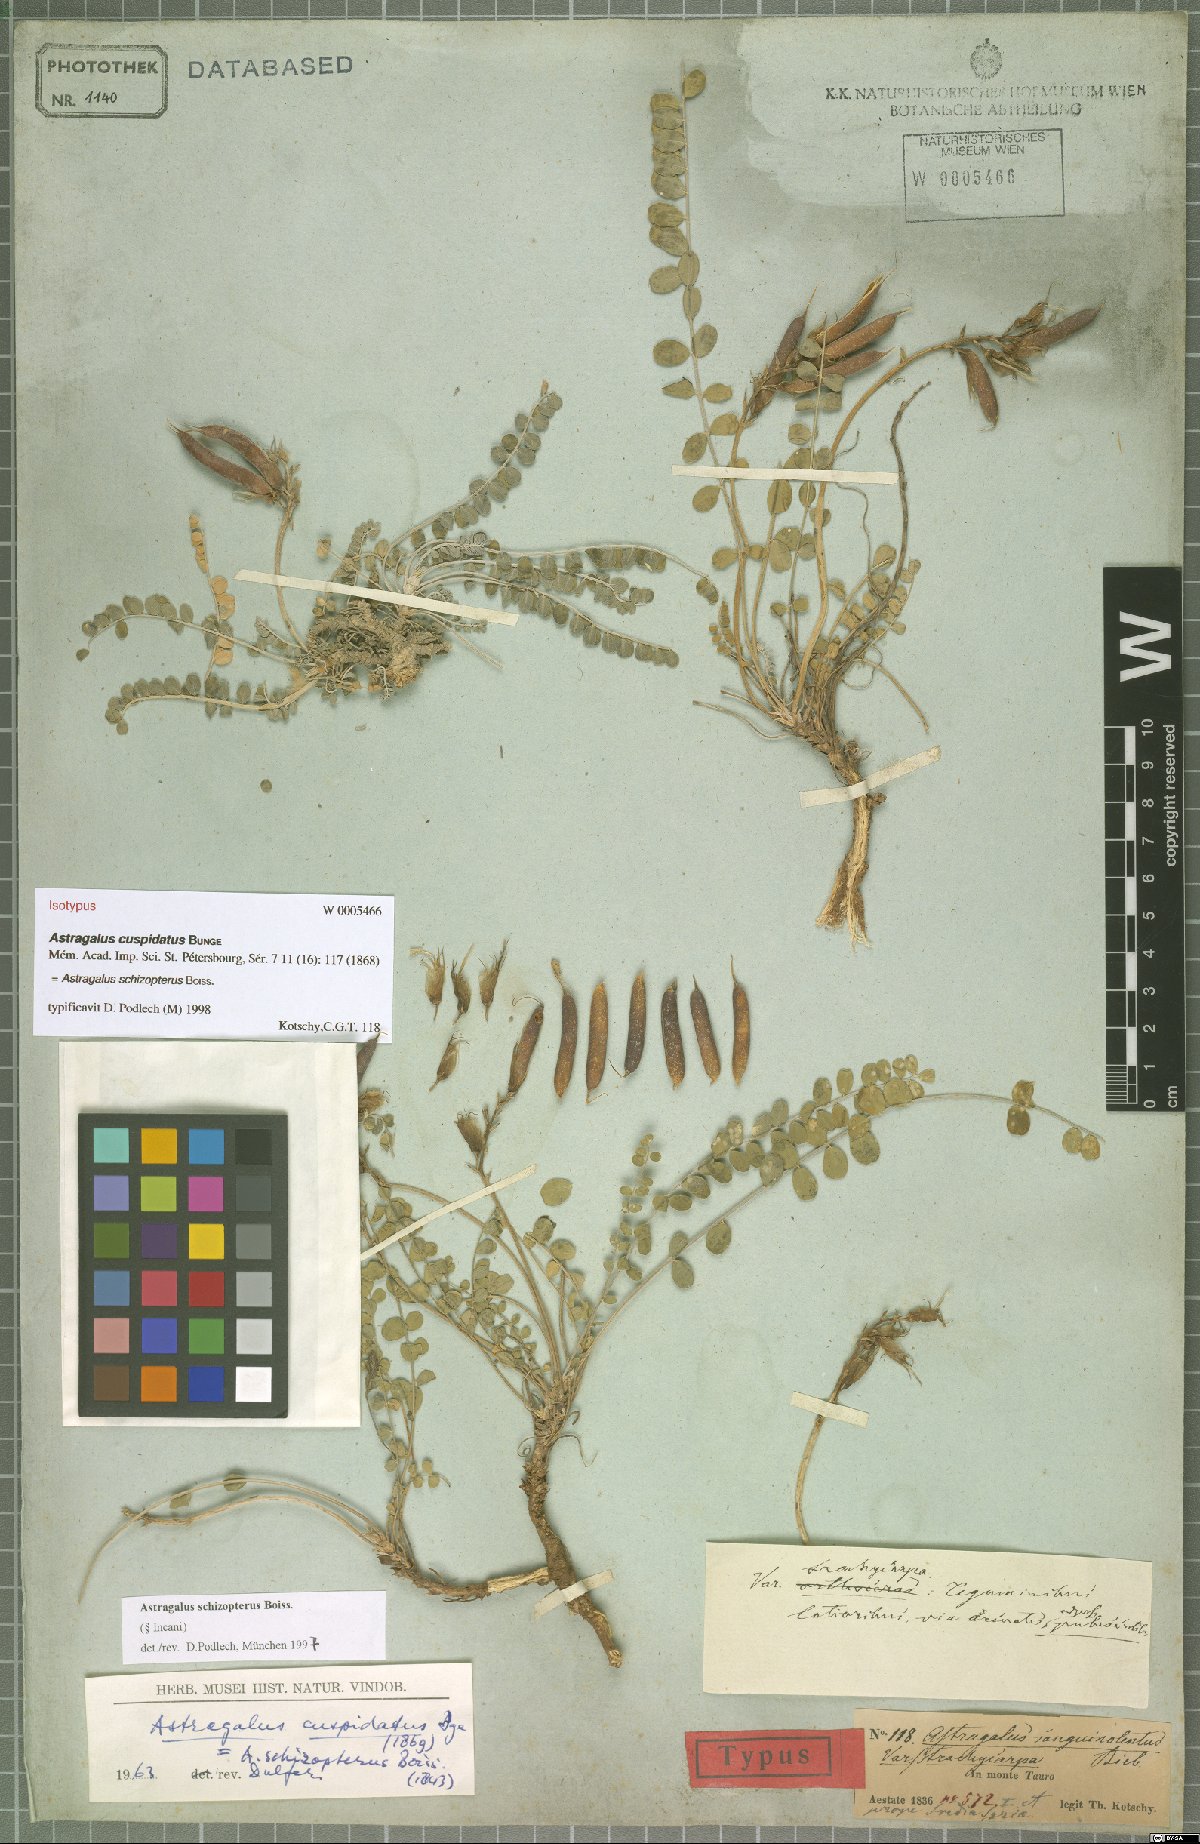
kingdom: Plantae
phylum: Tracheophyta
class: Magnoliopsida
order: Fabales
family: Fabaceae
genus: Astragalus
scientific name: Astragalus schizopterus
